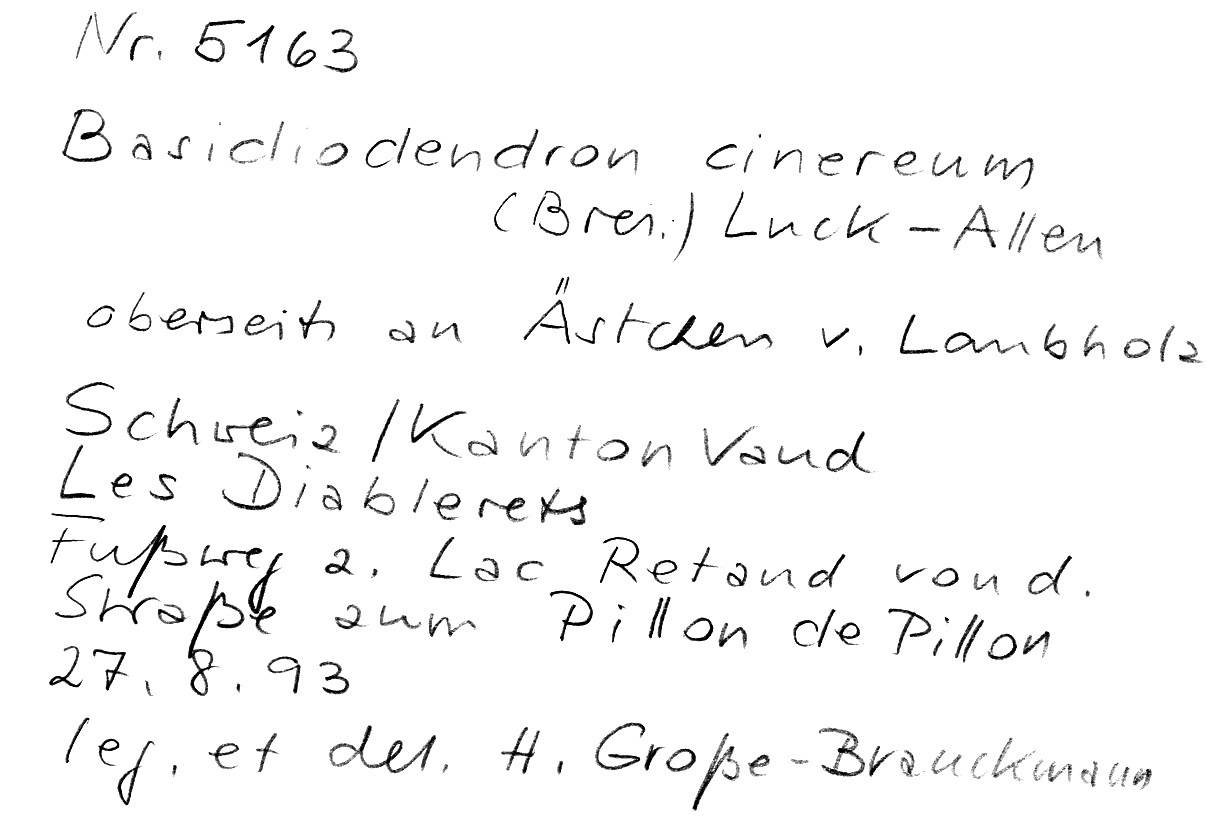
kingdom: Fungi
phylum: Basidiomycota
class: Agaricomycetes
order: Auriculariales
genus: Basidiodendron
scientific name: Basidiodendron cinereum
